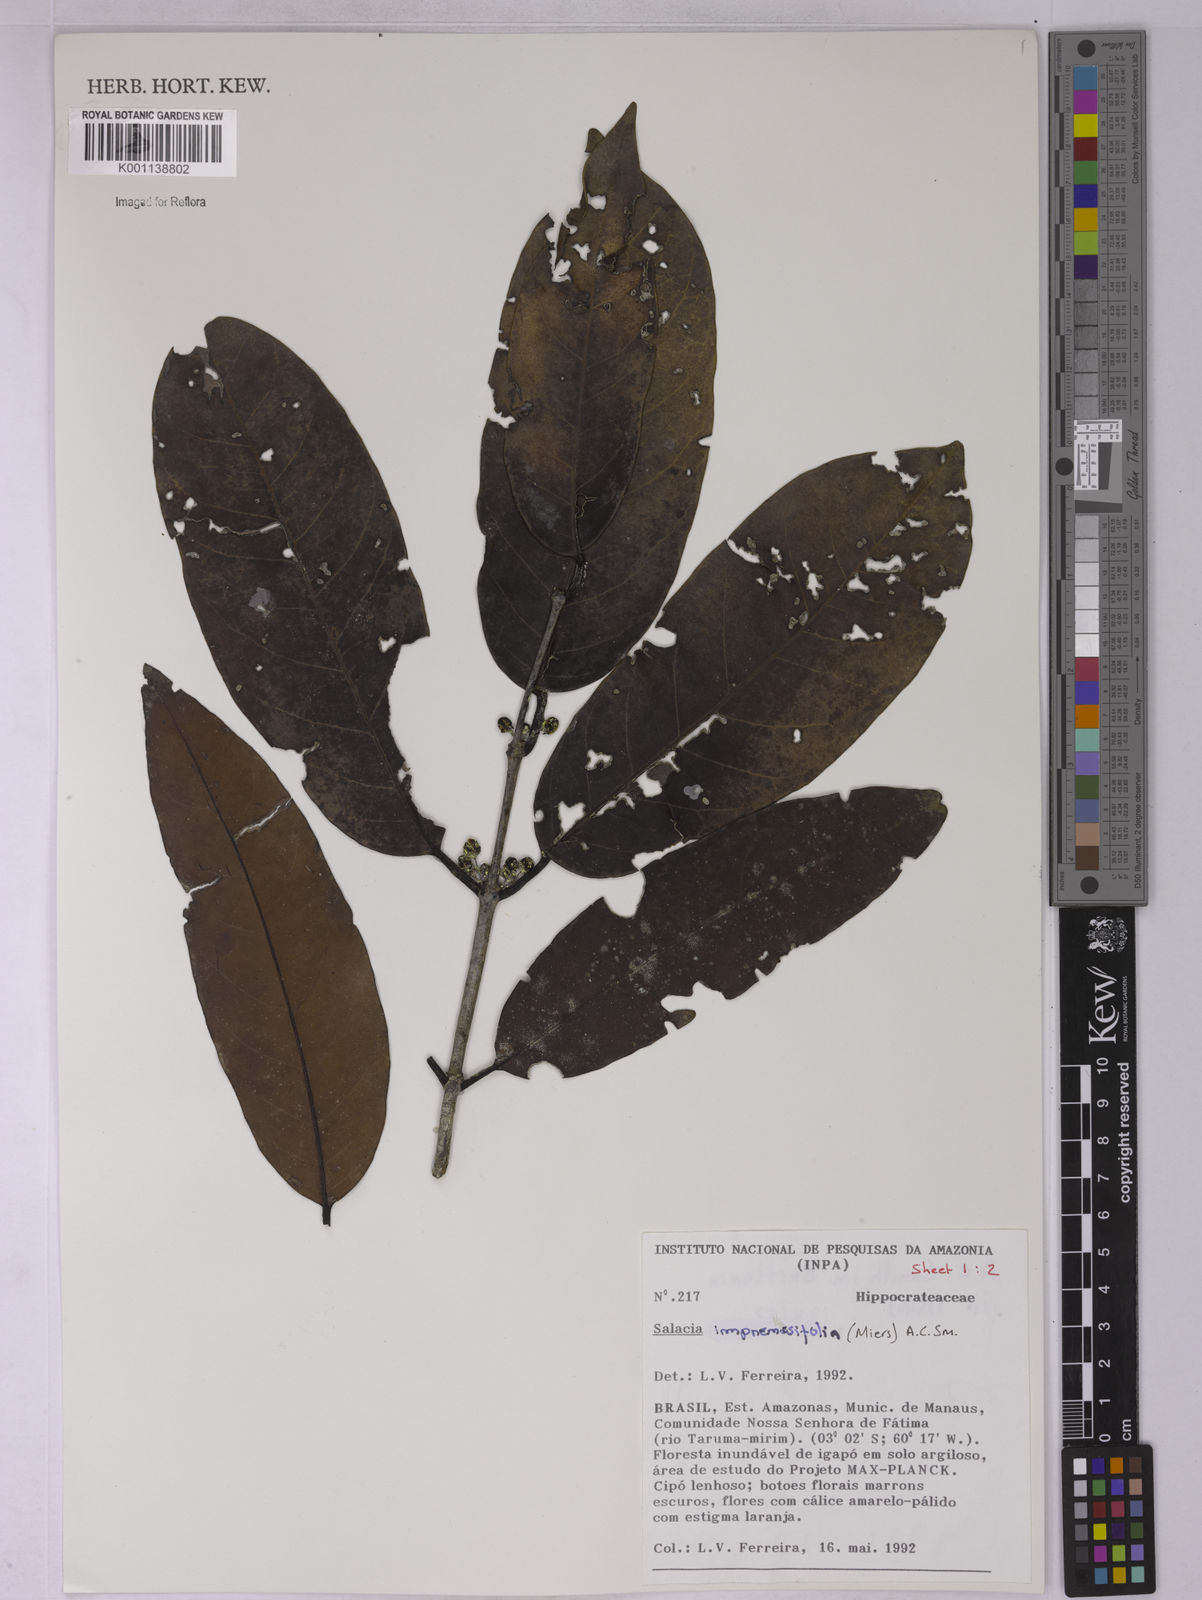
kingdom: Plantae
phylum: Tracheophyta
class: Magnoliopsida
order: Celastrales
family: Celastraceae
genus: Salacia
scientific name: Salacia impressifolia
